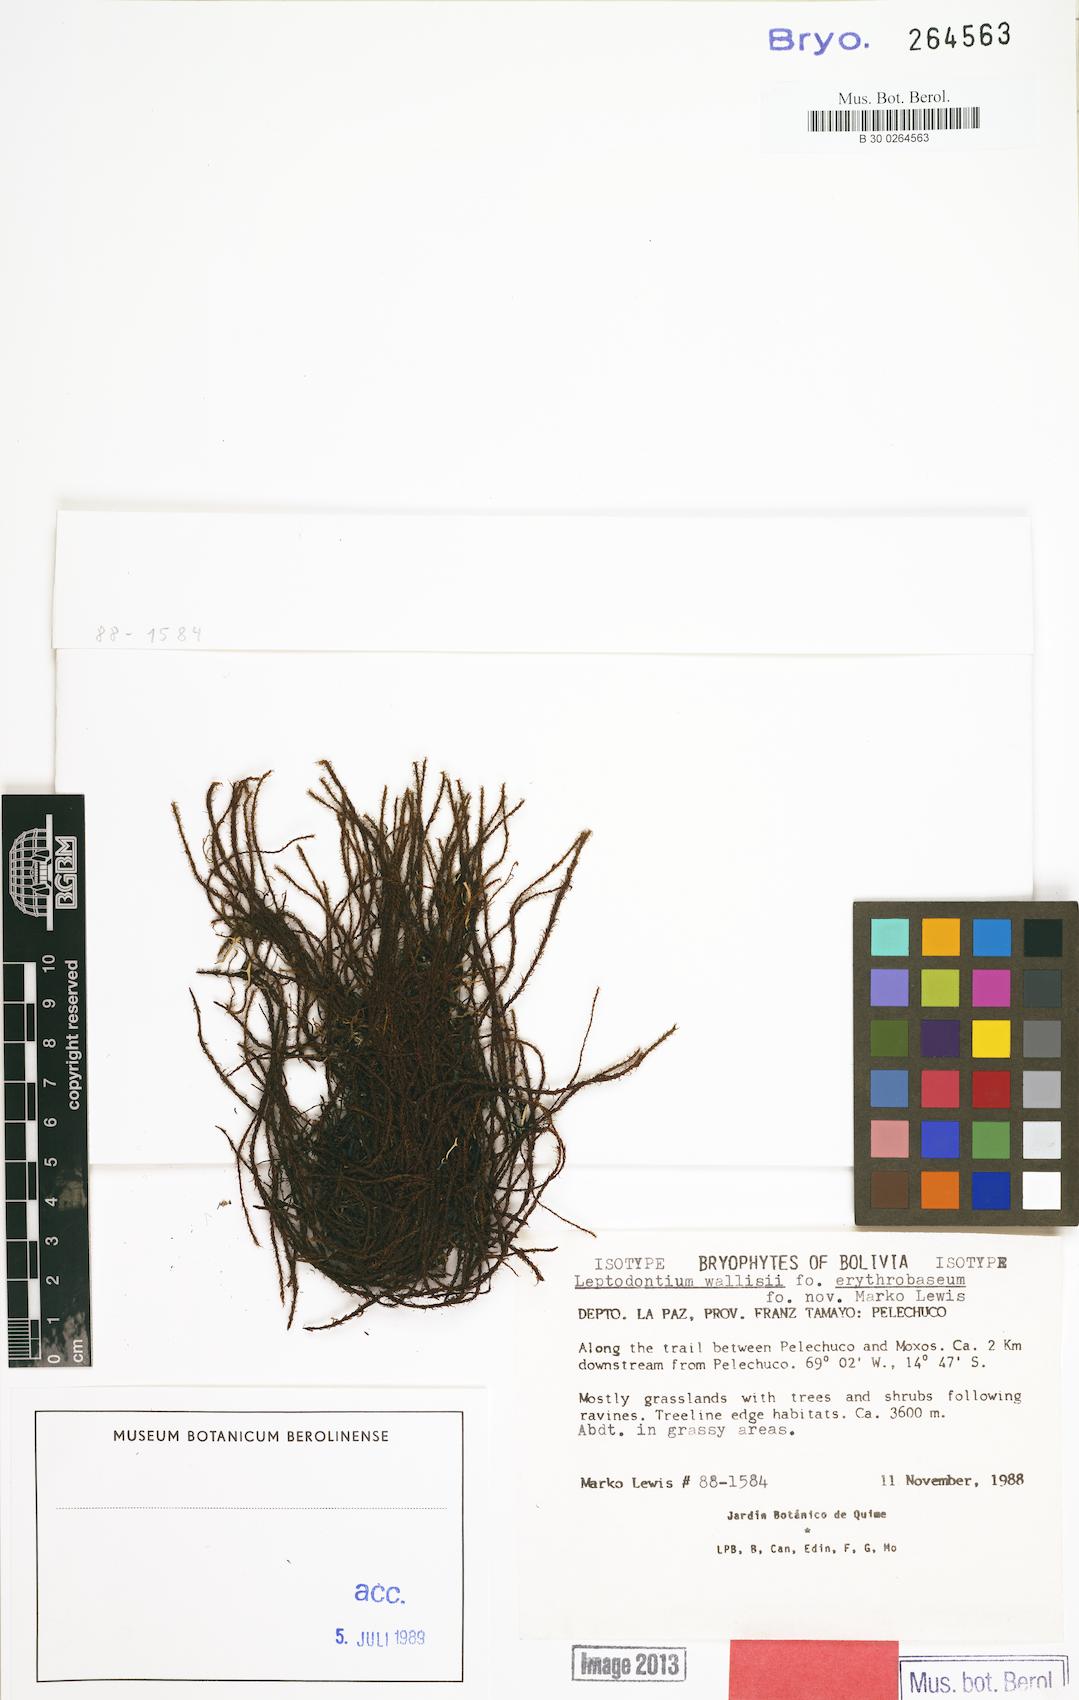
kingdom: Plantae
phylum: Bryophyta
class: Bryopsida
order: Pottiales
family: Pottiaceae
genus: Leptodontium
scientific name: Leptodontium wallisii
